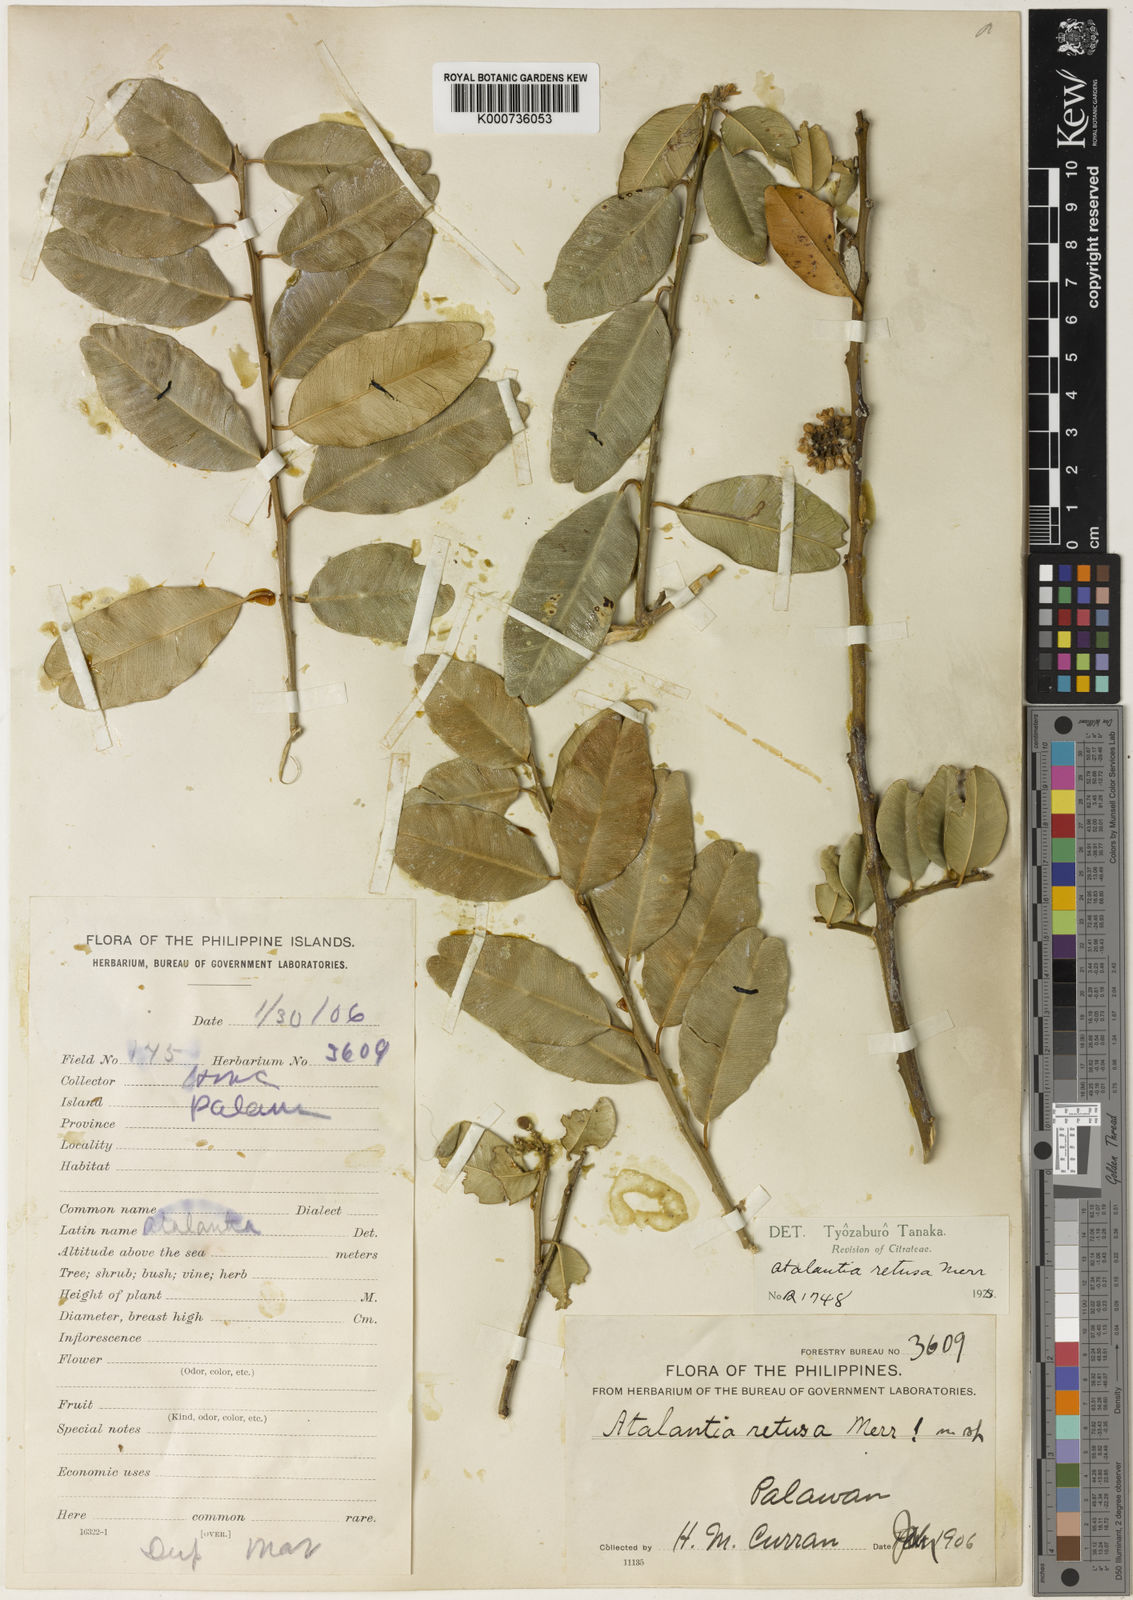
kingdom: Plantae
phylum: Tracheophyta
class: Magnoliopsida
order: Sapindales
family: Rutaceae
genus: Atalantia
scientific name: Atalantia retusa
